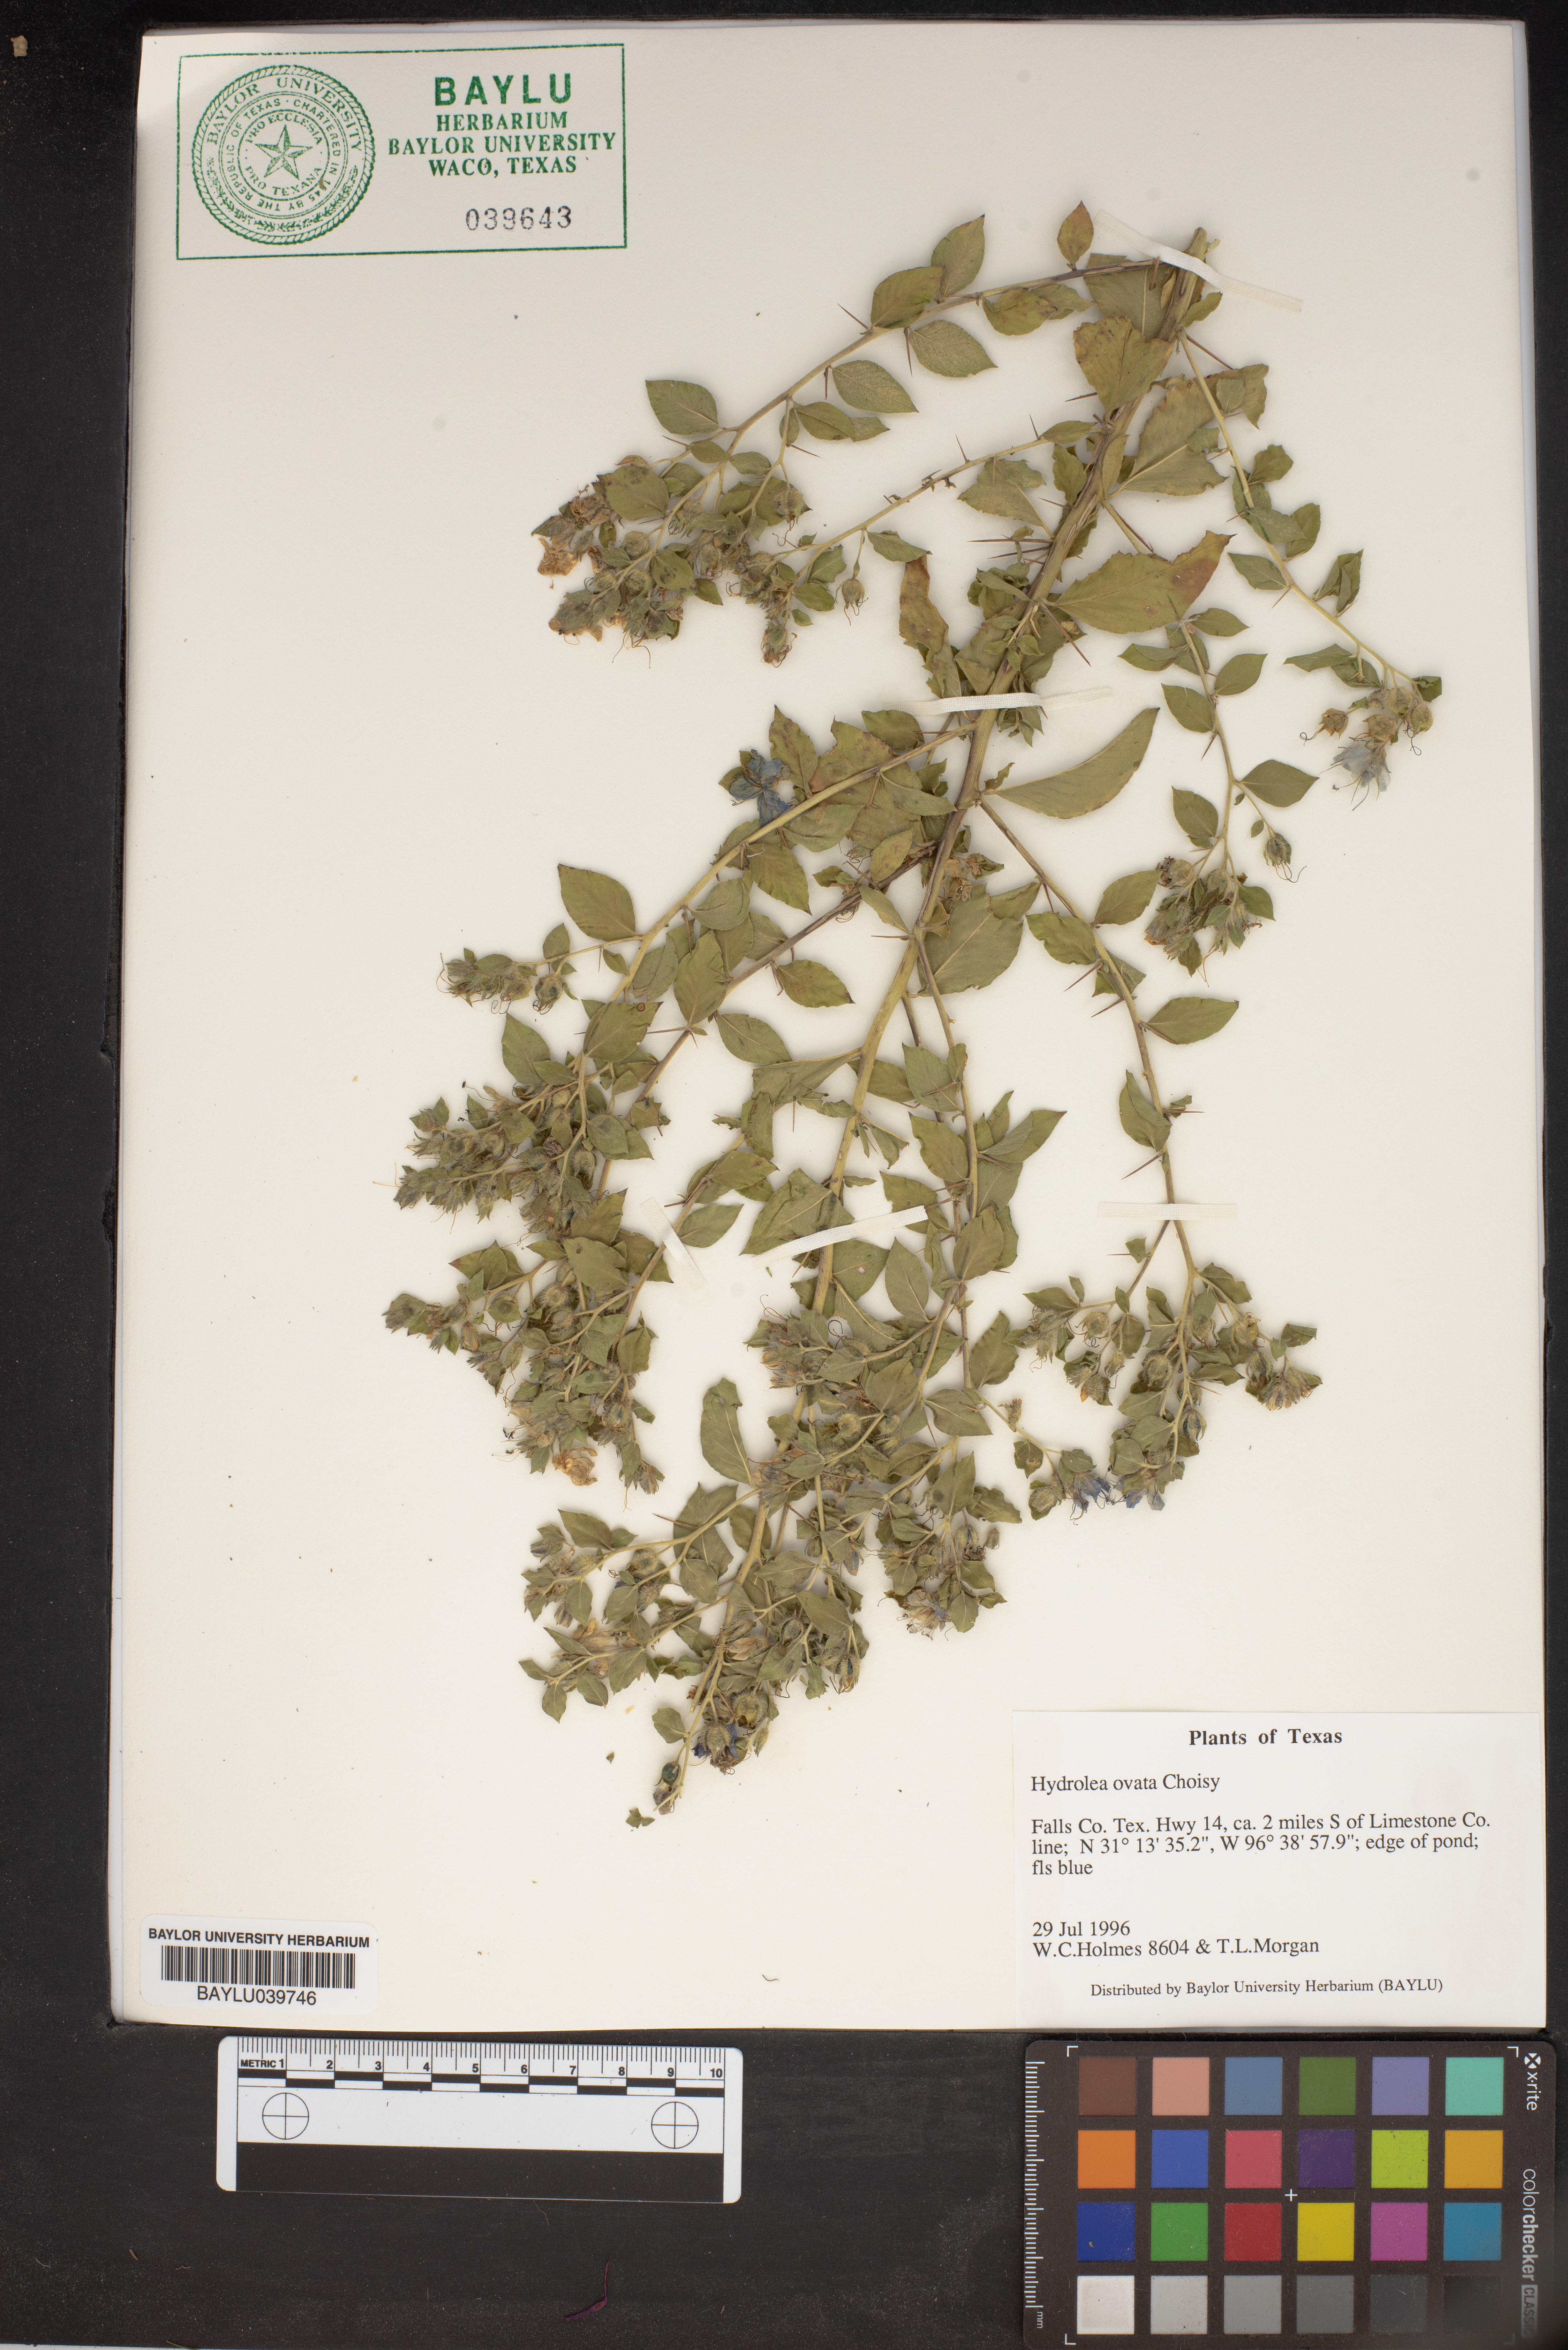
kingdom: Plantae
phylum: Tracheophyta
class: Magnoliopsida
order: Solanales
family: Hydroleaceae
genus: Hydrolea
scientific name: Hydrolea ovata
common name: Ovate false fiddleleaf
